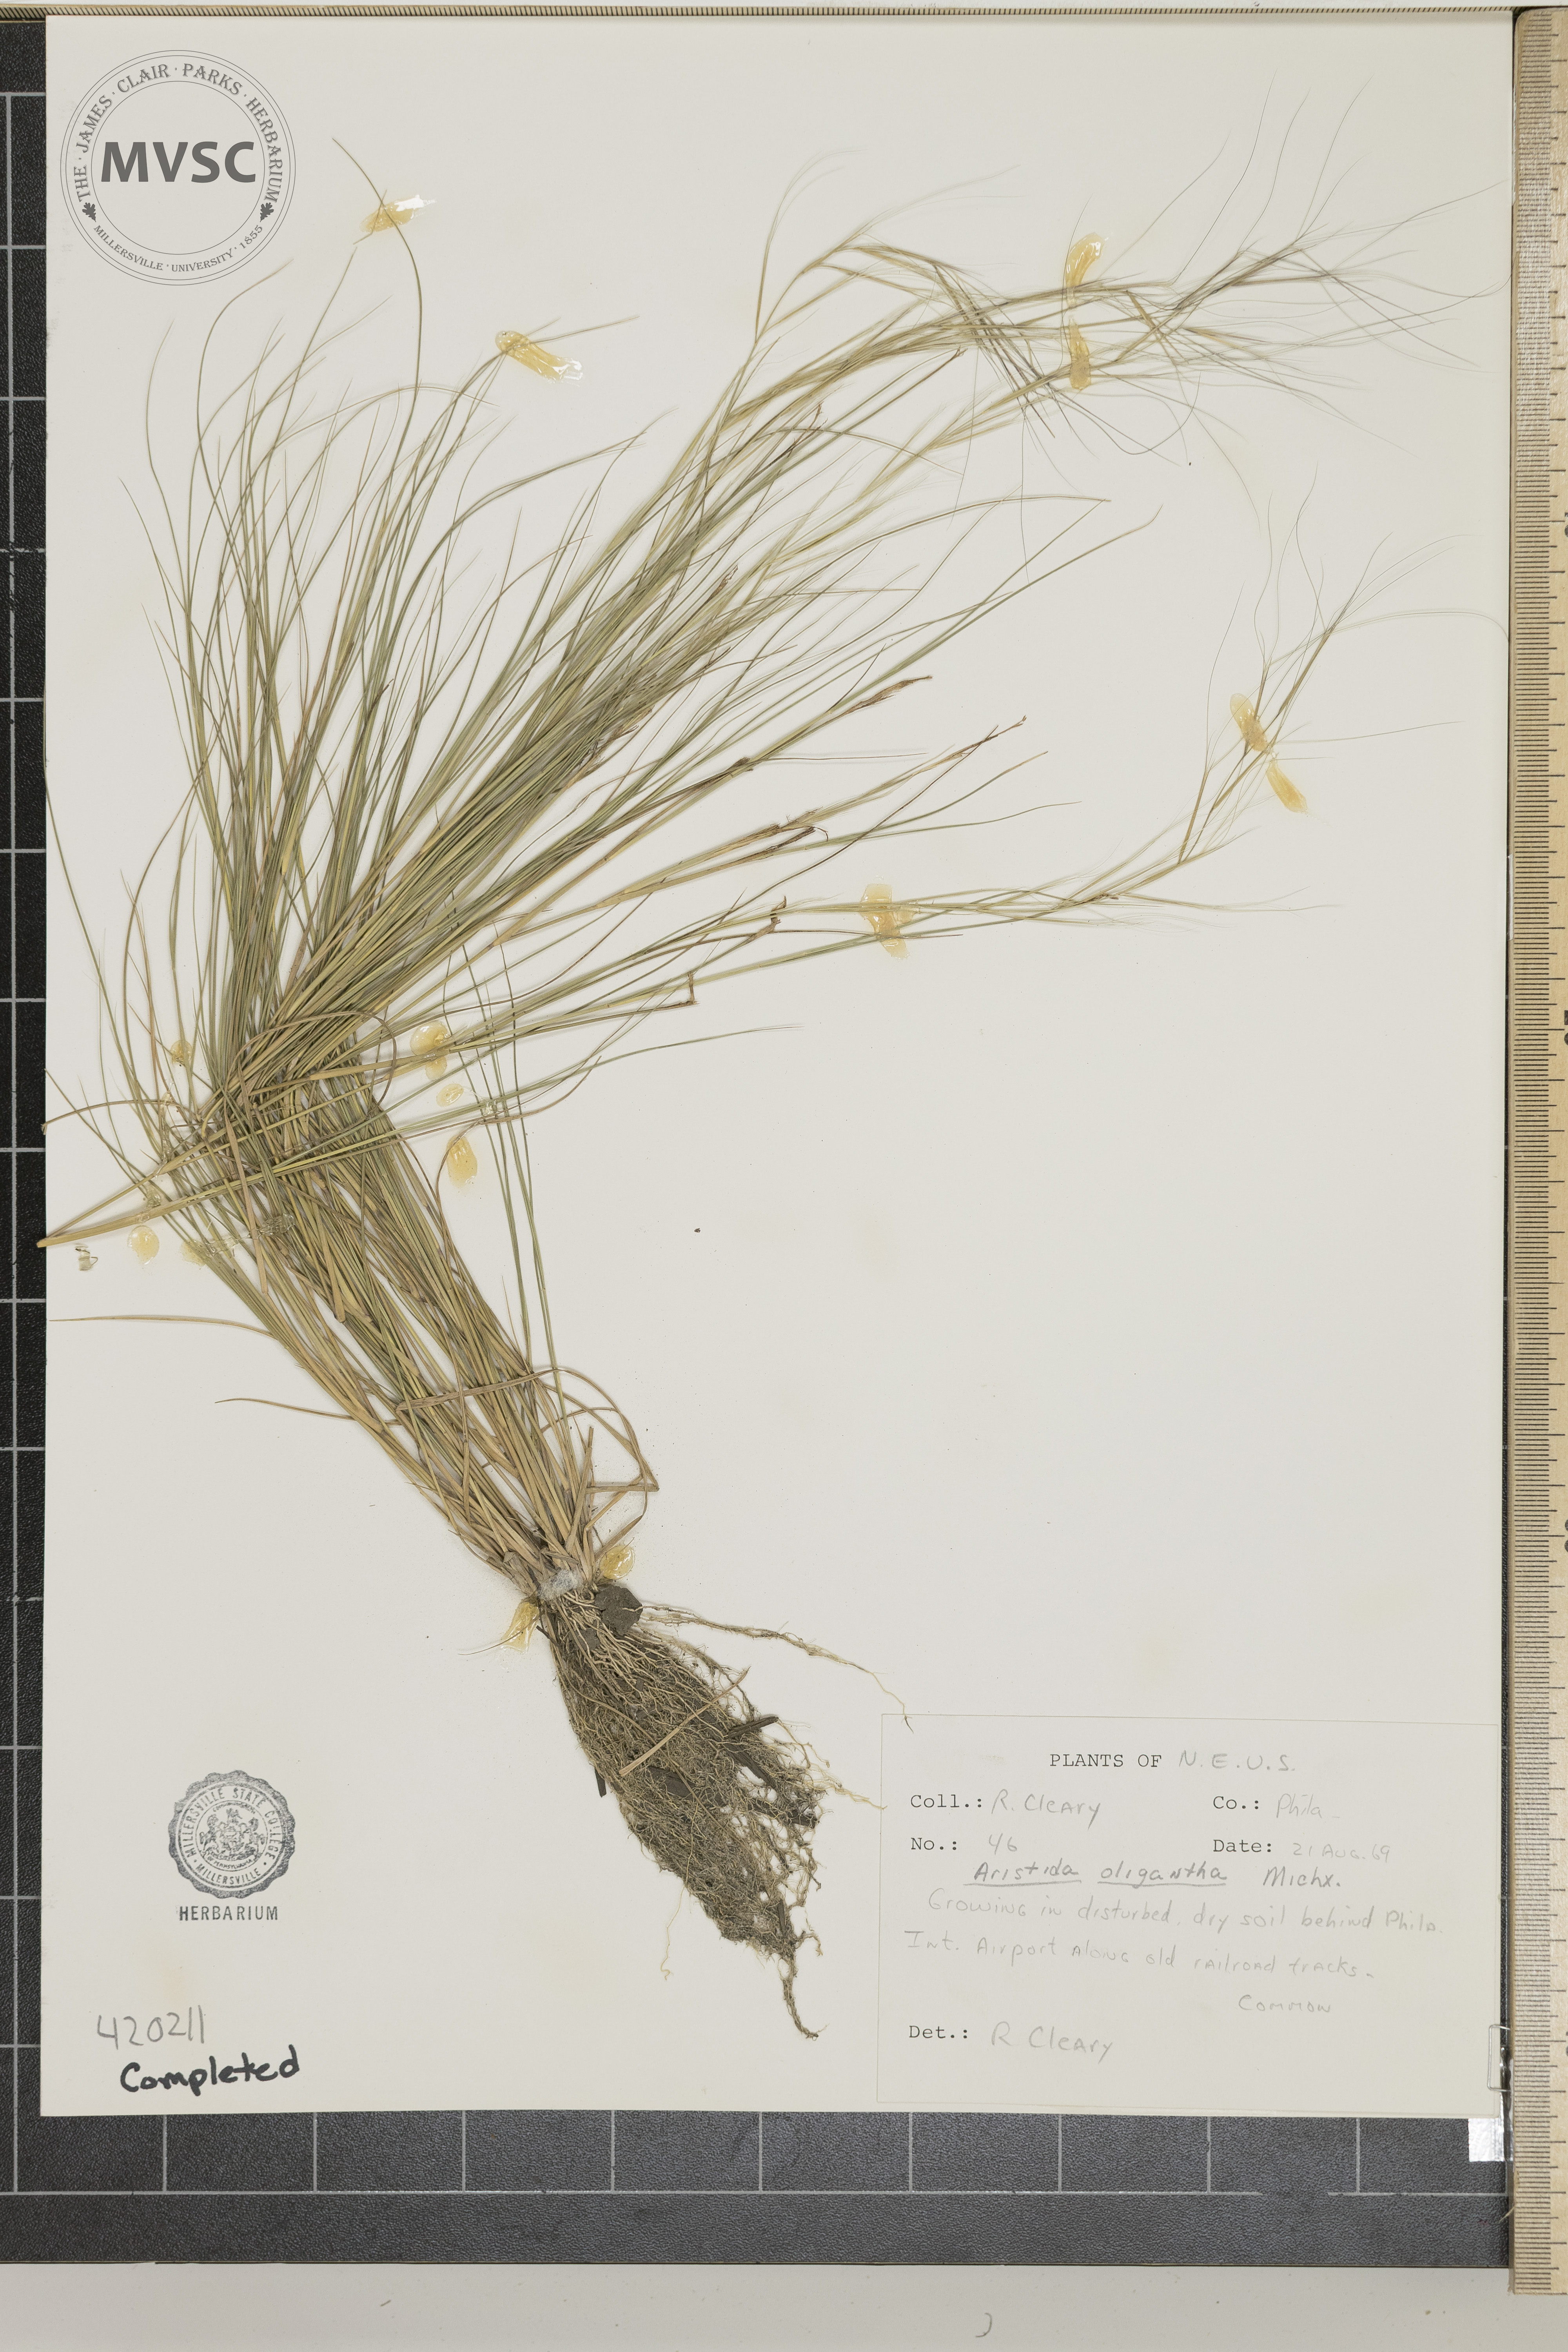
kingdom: Plantae
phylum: Tracheophyta
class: Liliopsida
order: Poales
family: Poaceae
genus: Aristida
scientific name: Aristida oligantha
